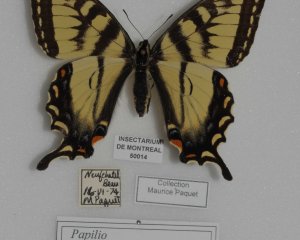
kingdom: Animalia
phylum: Arthropoda
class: Insecta
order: Lepidoptera
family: Papilionidae
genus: Pterourus
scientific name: Pterourus canadensis
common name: Canadian Tiger Swallowtail
